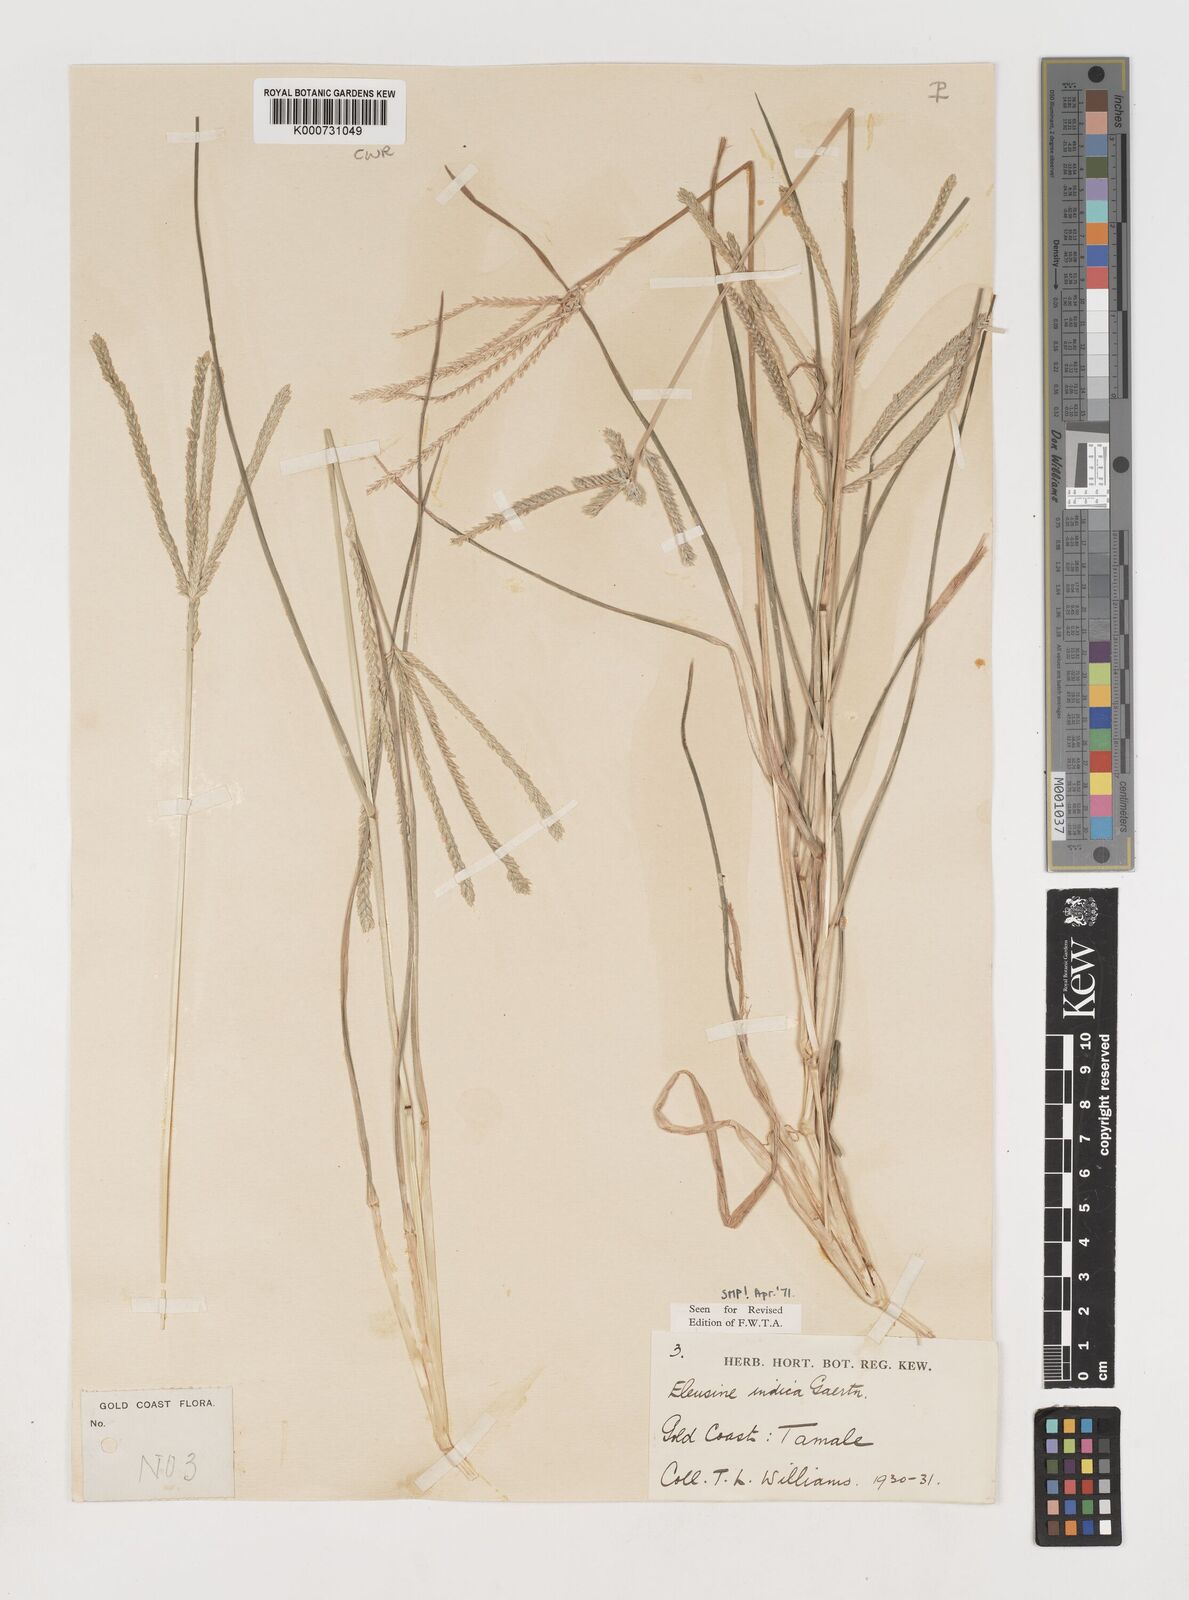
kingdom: Plantae
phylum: Tracheophyta
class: Liliopsida
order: Poales
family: Poaceae
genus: Eleusine
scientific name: Eleusine indica
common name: Yard-grass
